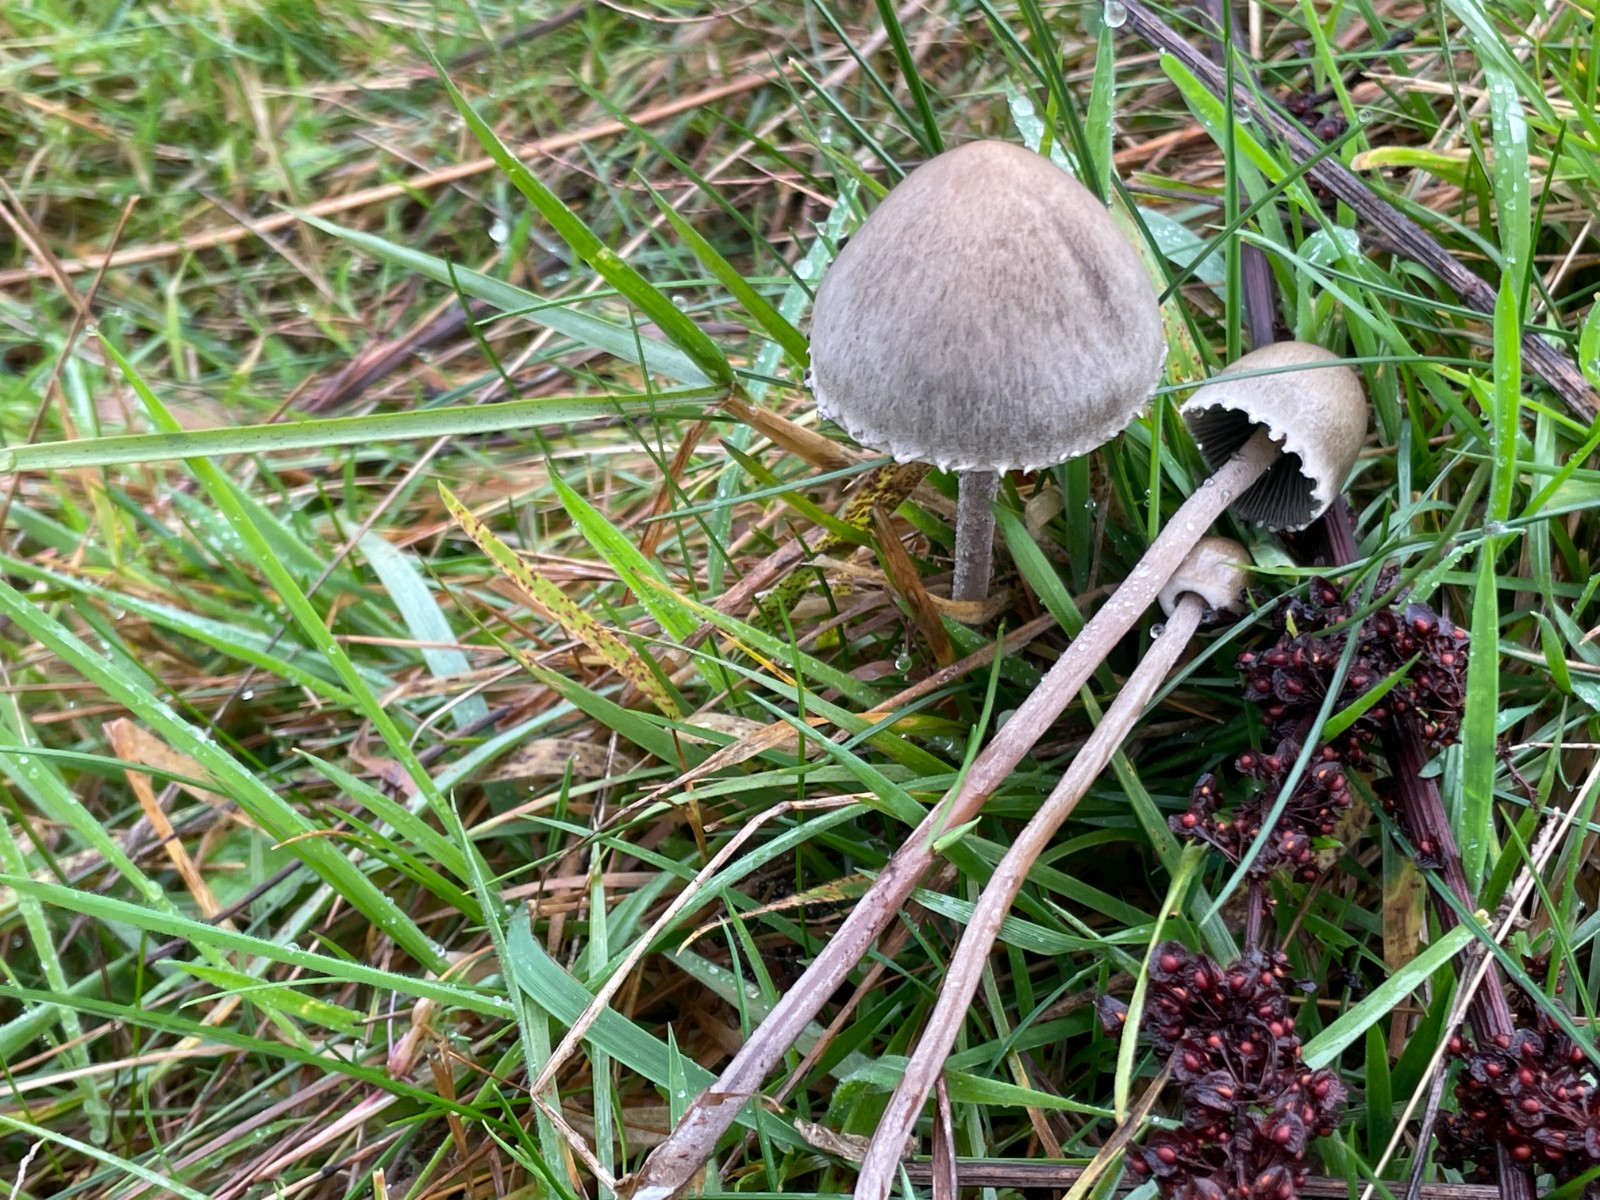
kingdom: Fungi
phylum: Basidiomycota
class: Agaricomycetes
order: Agaricales
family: Bolbitiaceae
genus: Panaeolus
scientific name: Panaeolus papilionaceus
